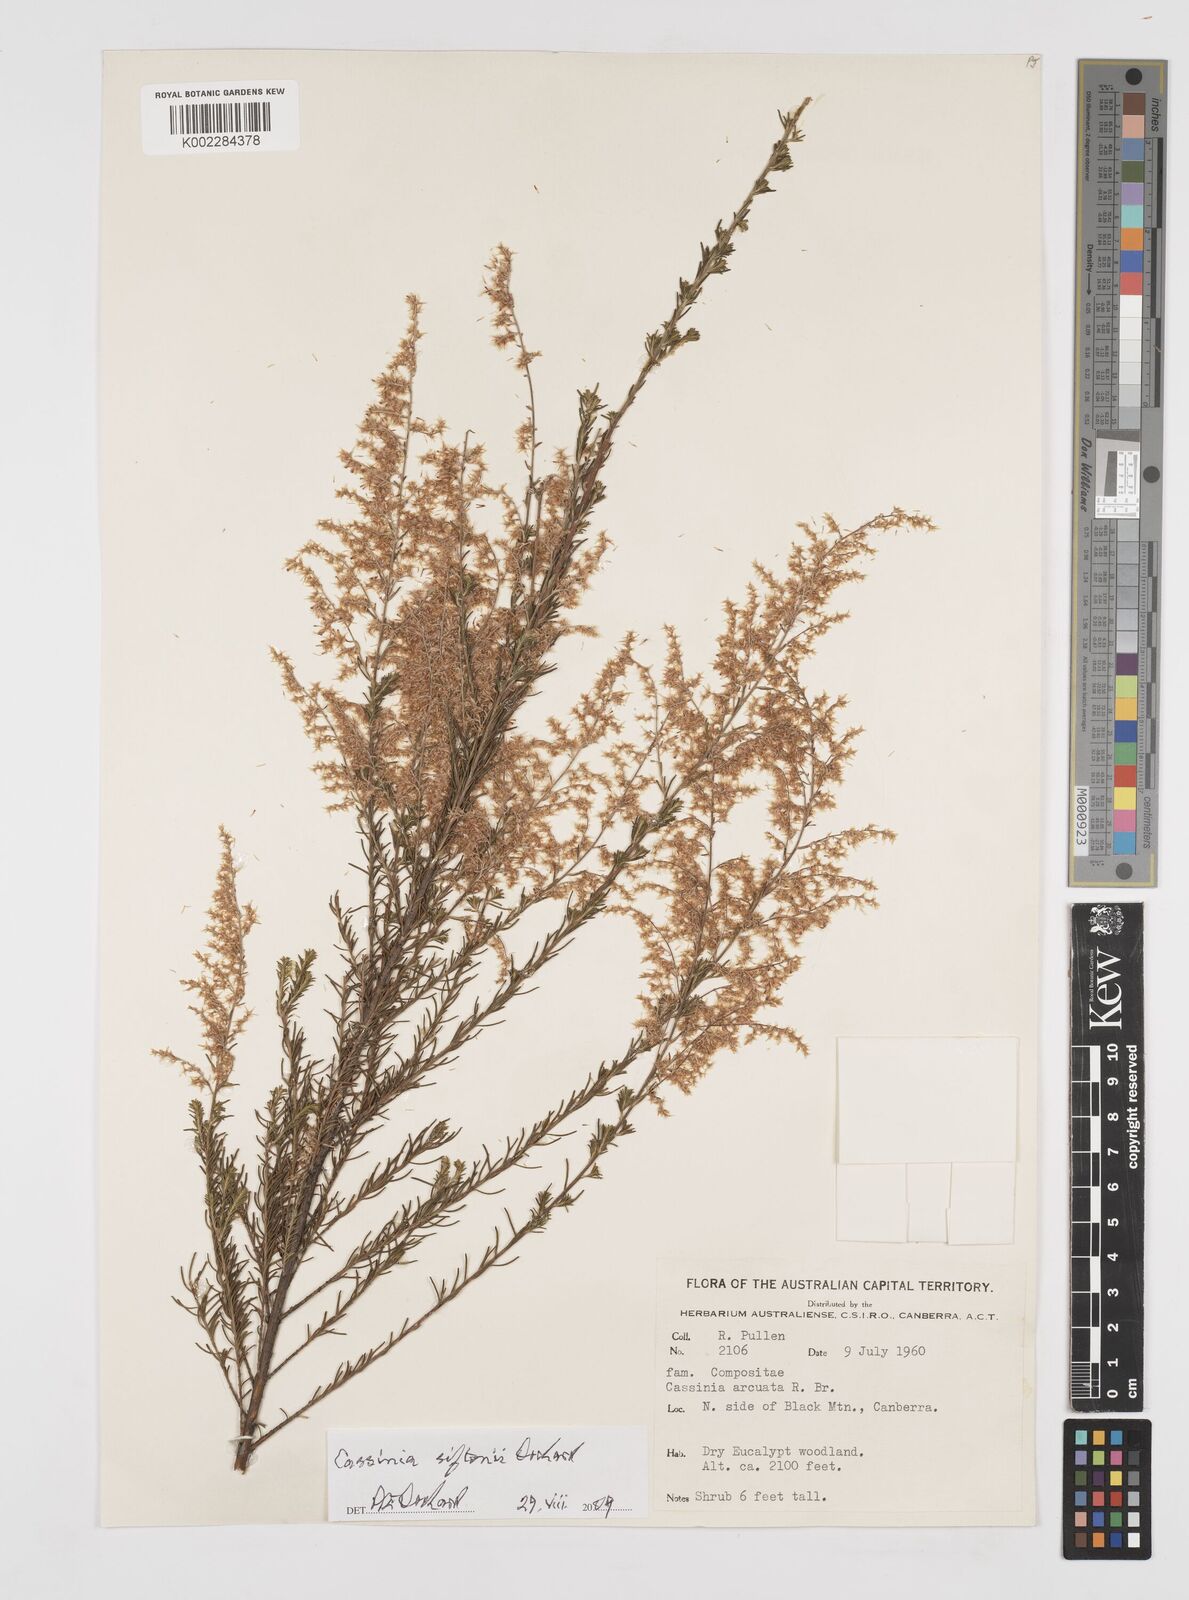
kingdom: Plantae
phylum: Tracheophyta
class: Magnoliopsida
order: Asterales
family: Asteraceae
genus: Cassinia
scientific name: Cassinia arcuata
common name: Chineseshrub
